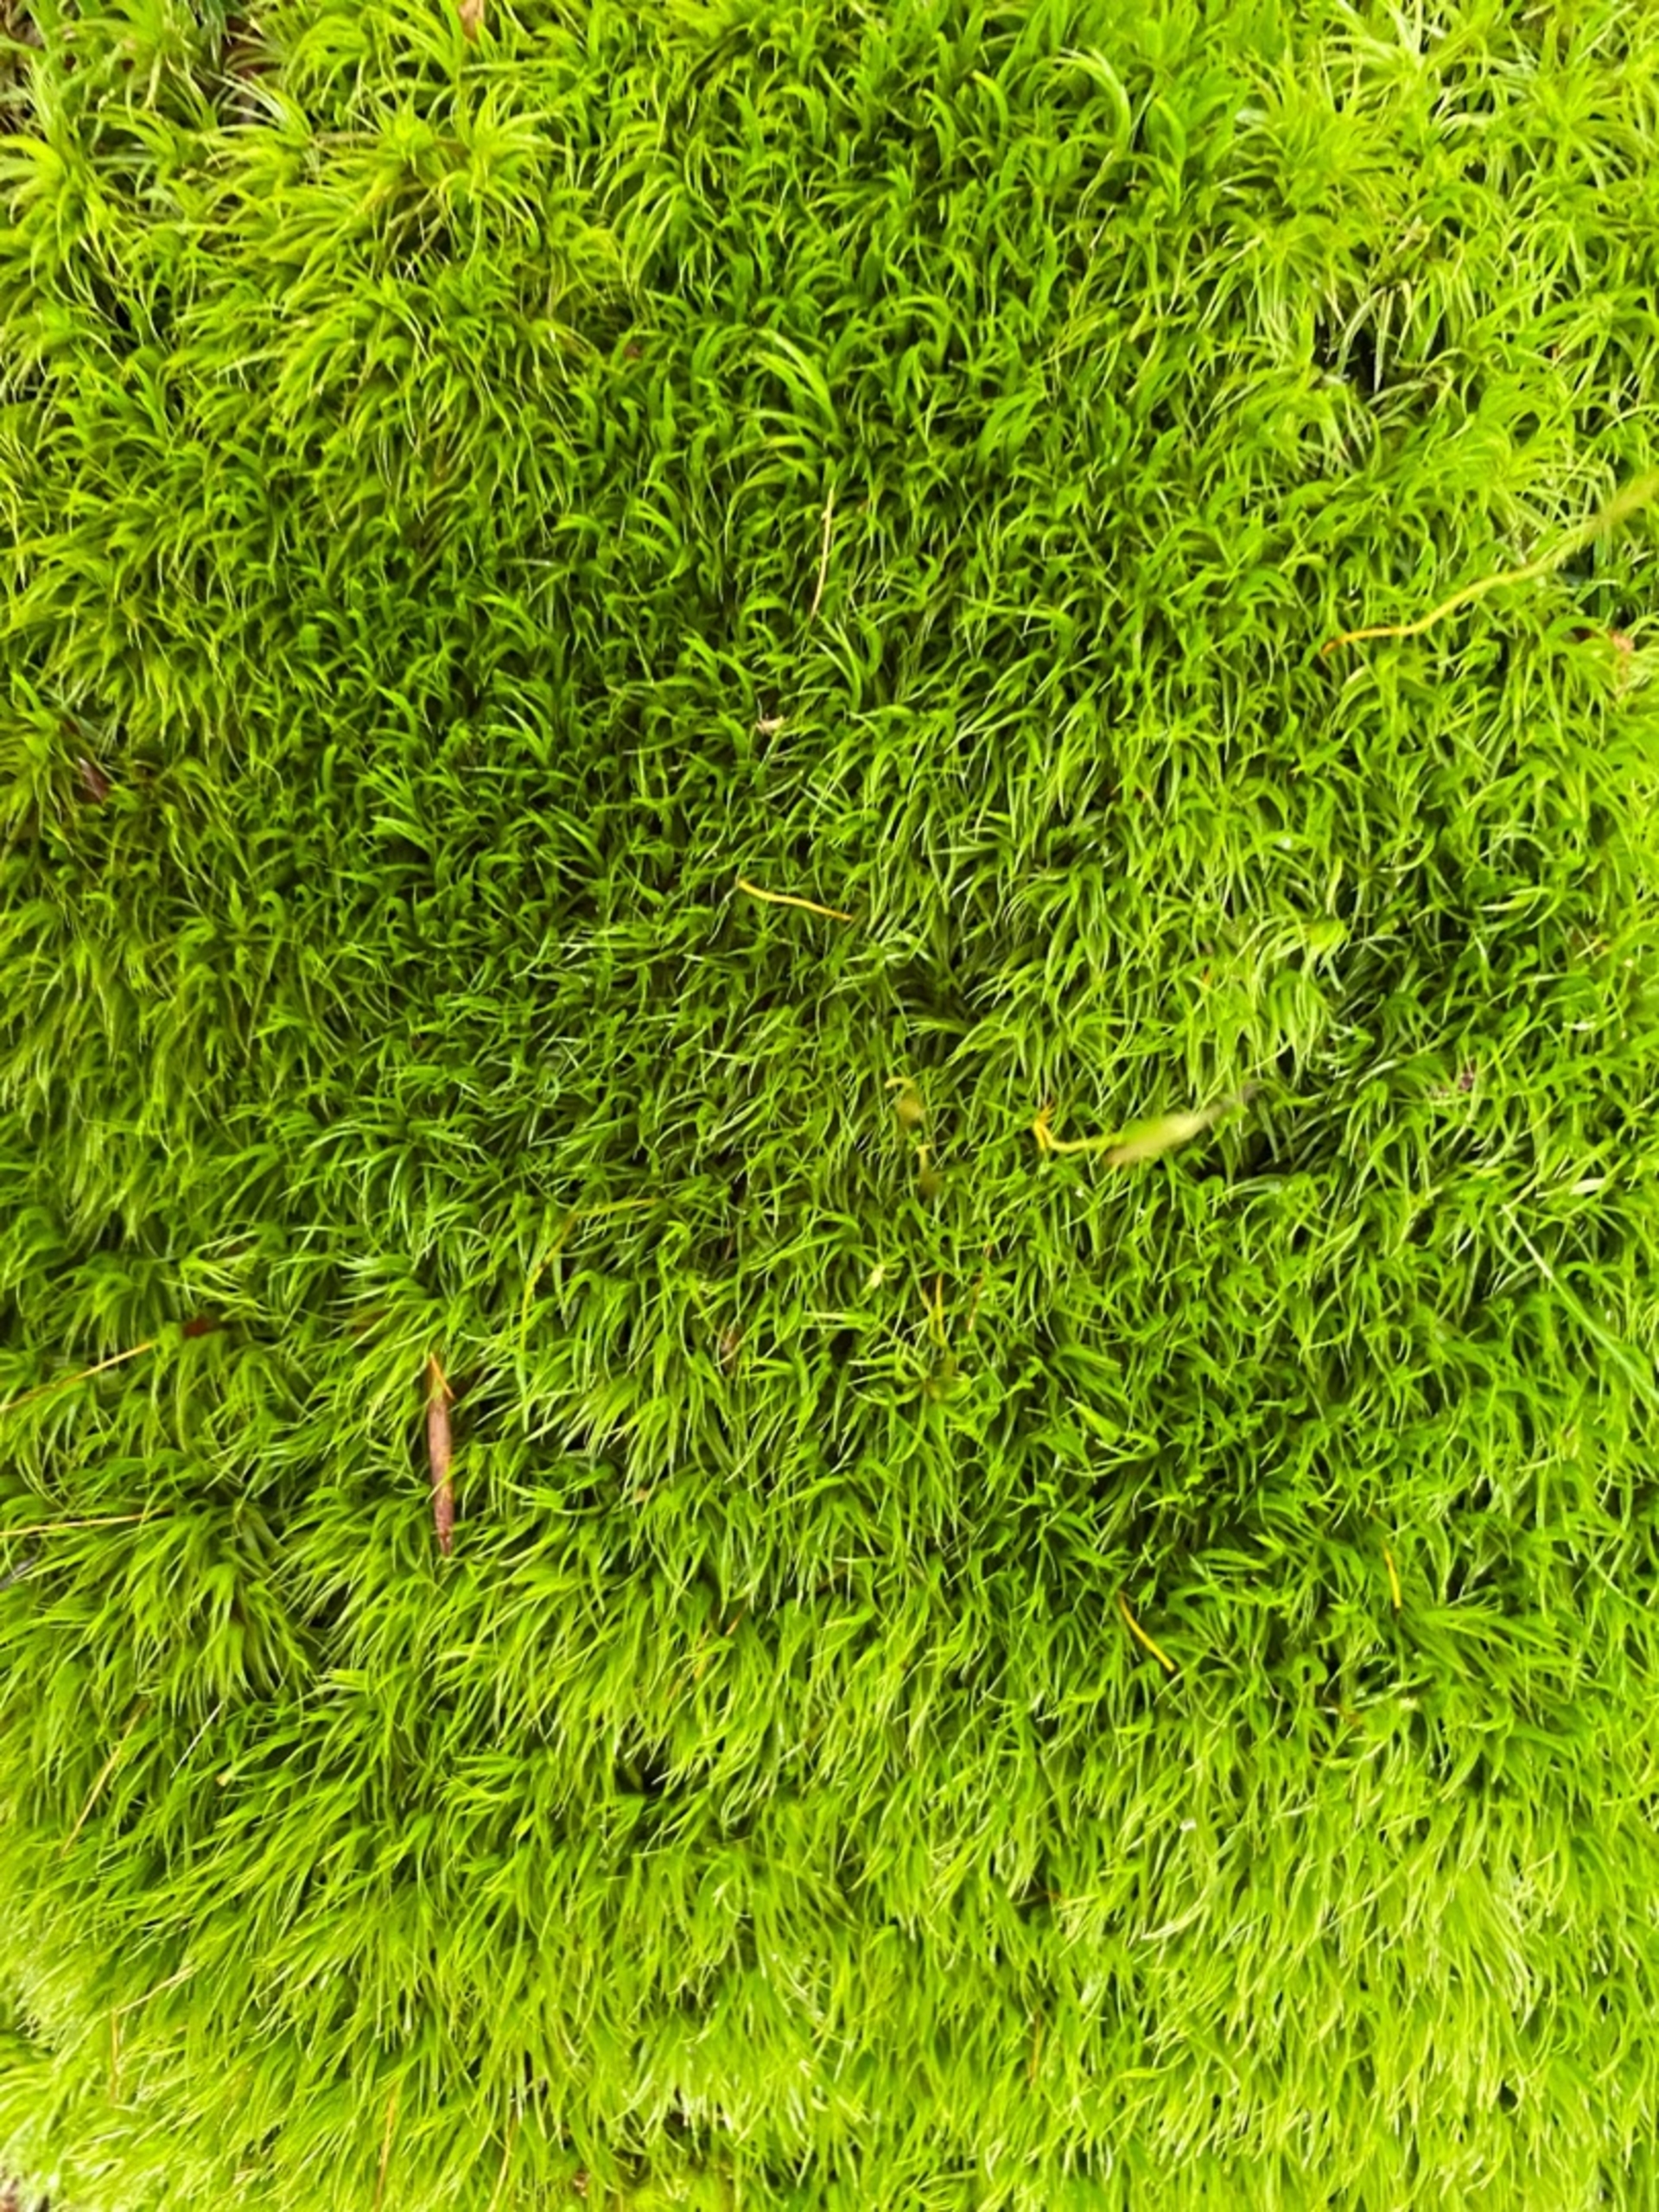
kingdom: Plantae
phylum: Bryophyta
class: Bryopsida
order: Dicranales
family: Dicranaceae
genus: Dicranum
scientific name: Dicranum scoparium
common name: Almindelig kløvtand
